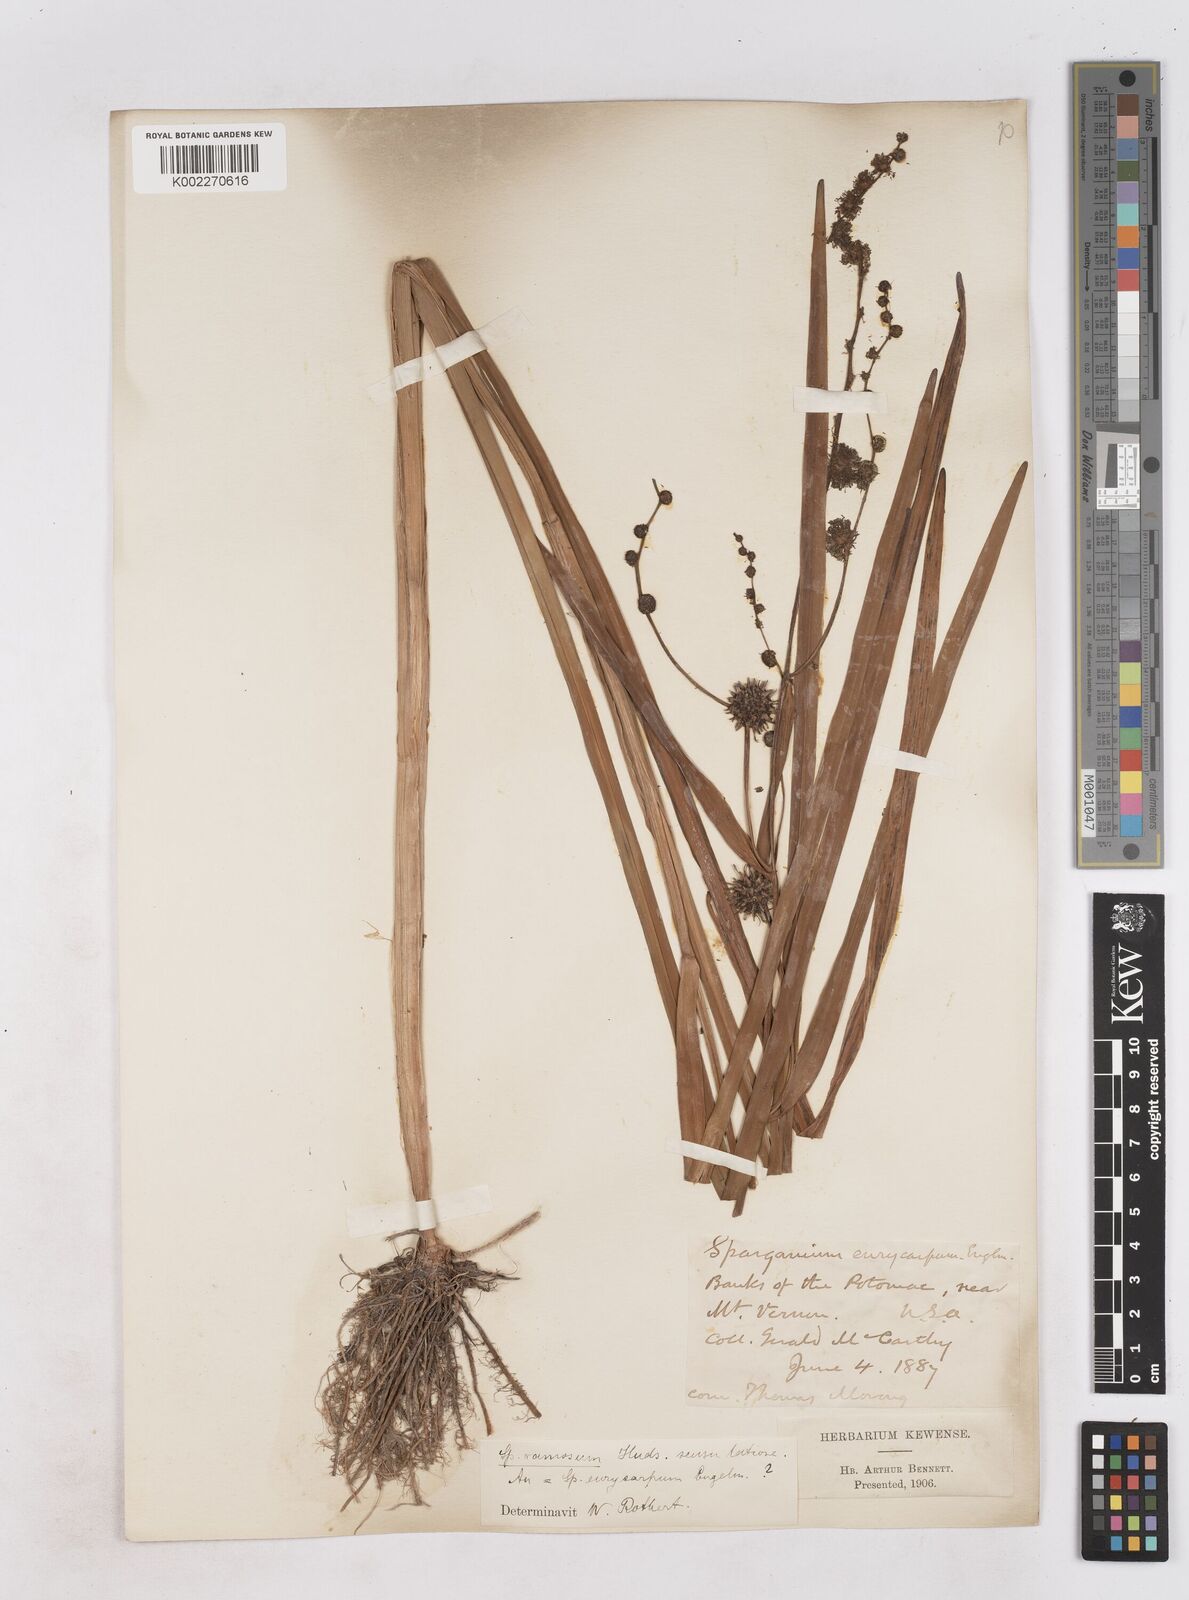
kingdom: Plantae
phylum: Tracheophyta
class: Liliopsida
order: Poales
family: Typhaceae
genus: Sparganium
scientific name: Sparganium eurycarpum
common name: Broad-fruited burreed
